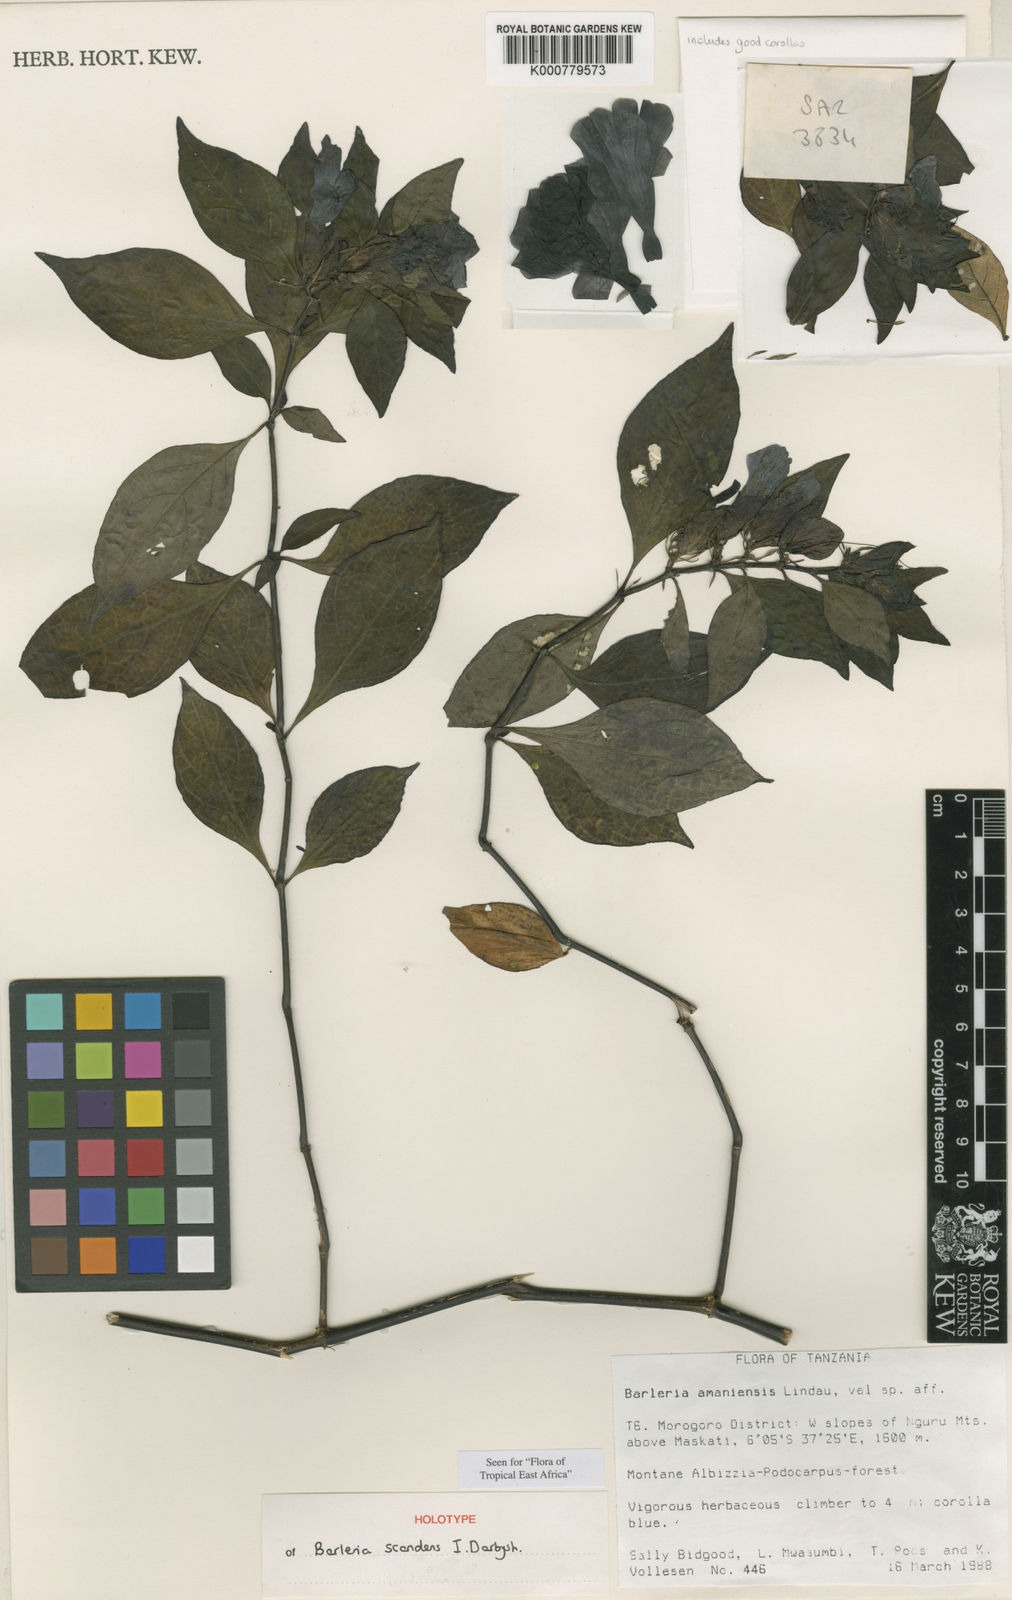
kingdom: Plantae
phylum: Tracheophyta
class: Magnoliopsida
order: Lamiales
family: Acanthaceae
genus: Barleria
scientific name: Barleria scandens
